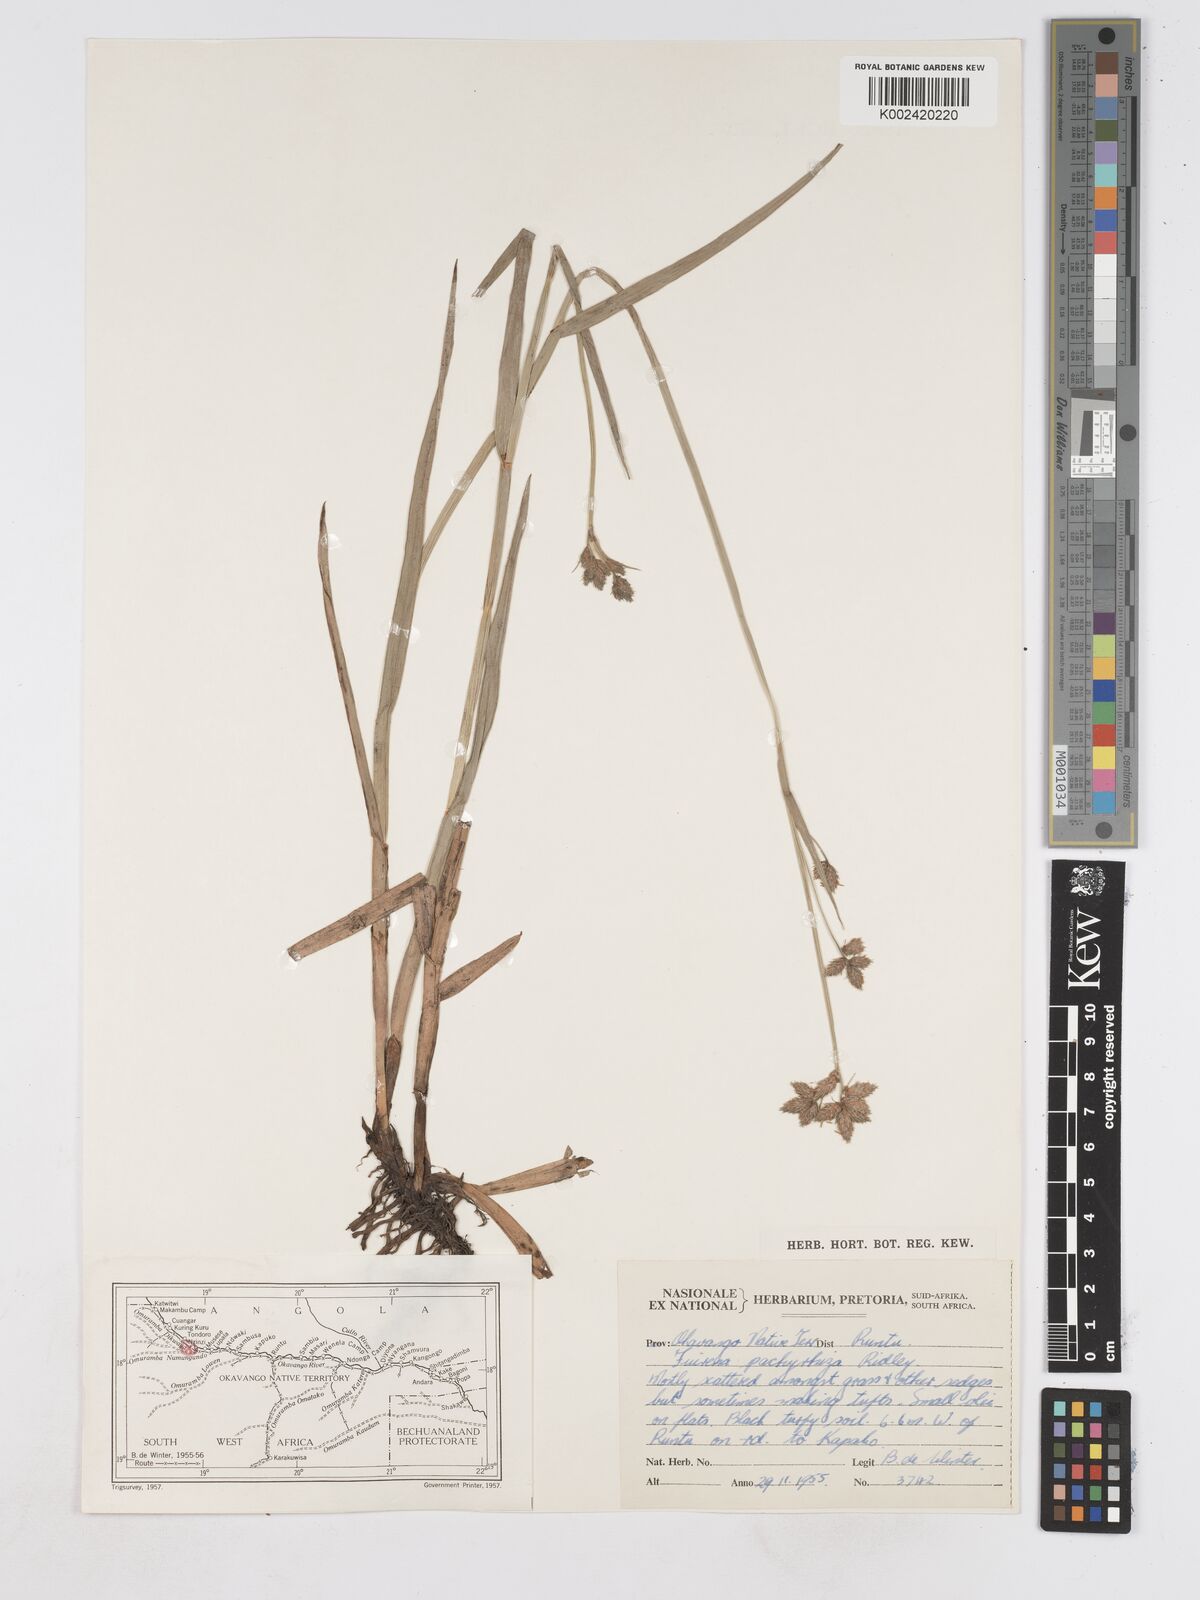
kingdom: Plantae
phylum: Tracheophyta
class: Liliopsida
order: Poales
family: Cyperaceae
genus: Fuirena
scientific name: Fuirena pachyrrhiza
